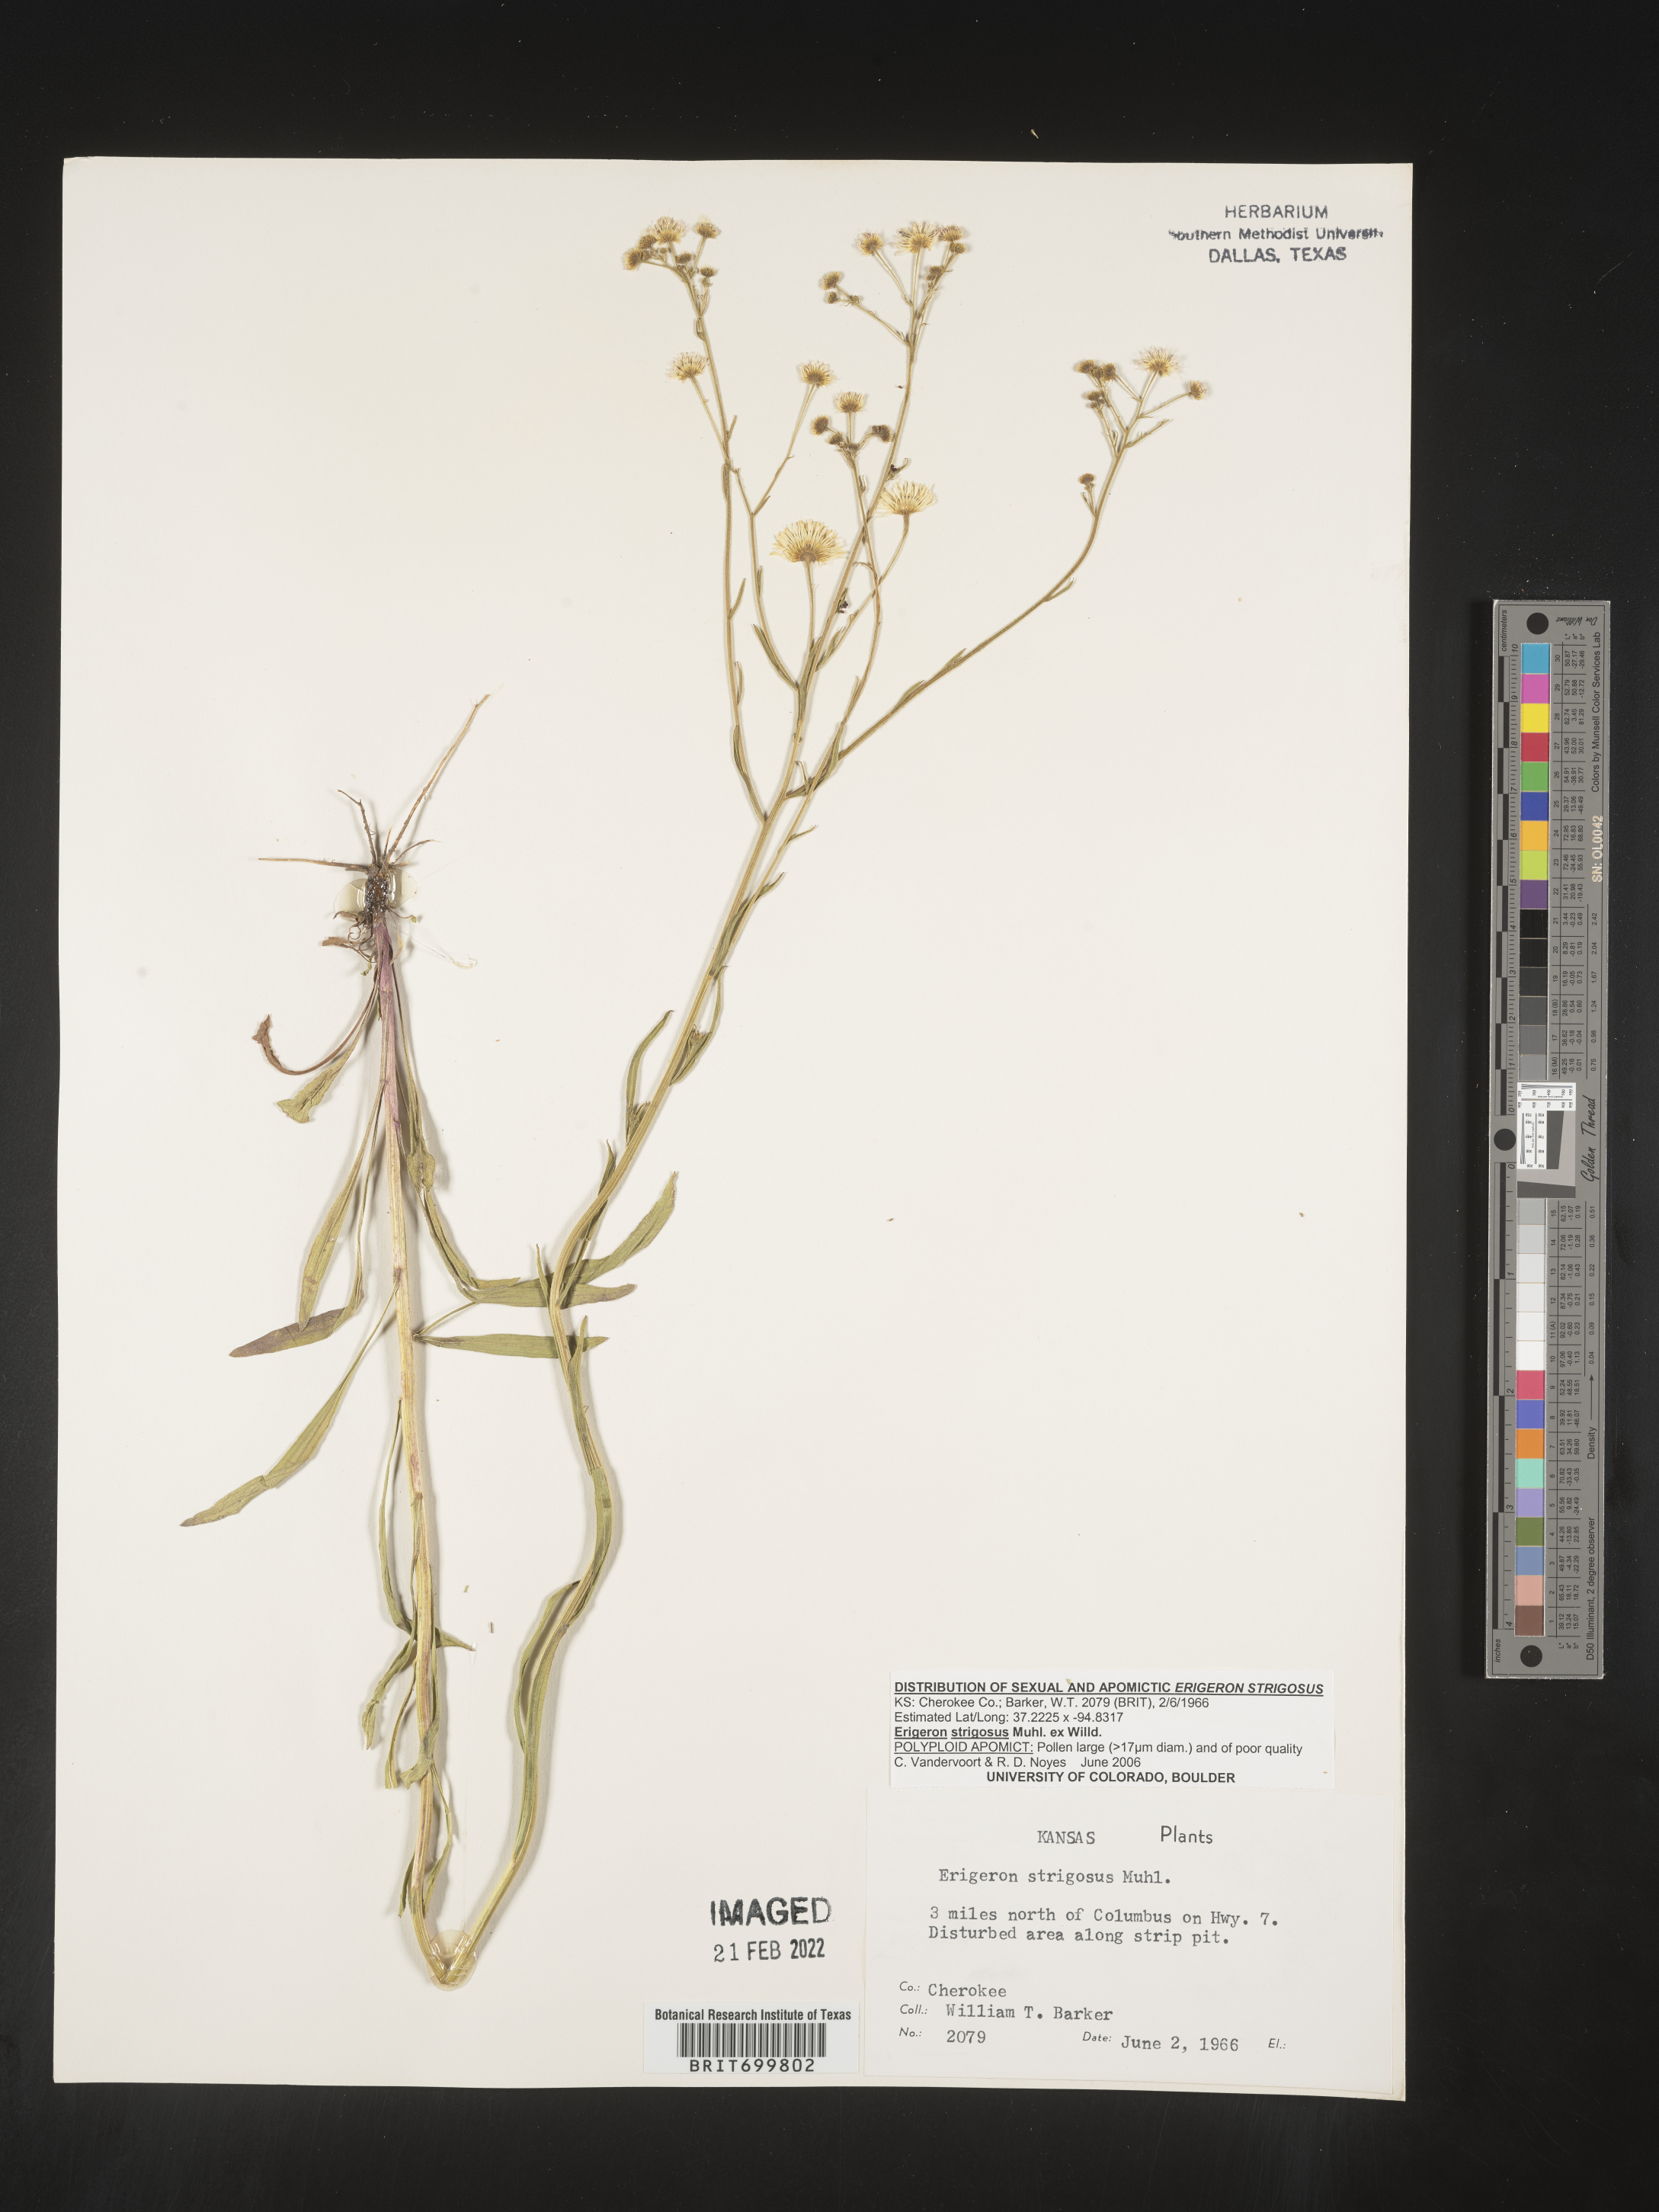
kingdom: Plantae
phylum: Tracheophyta
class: Magnoliopsida
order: Asterales
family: Asteraceae
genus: Erigeron
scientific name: Erigeron strigosus
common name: Common eastern fleabane
